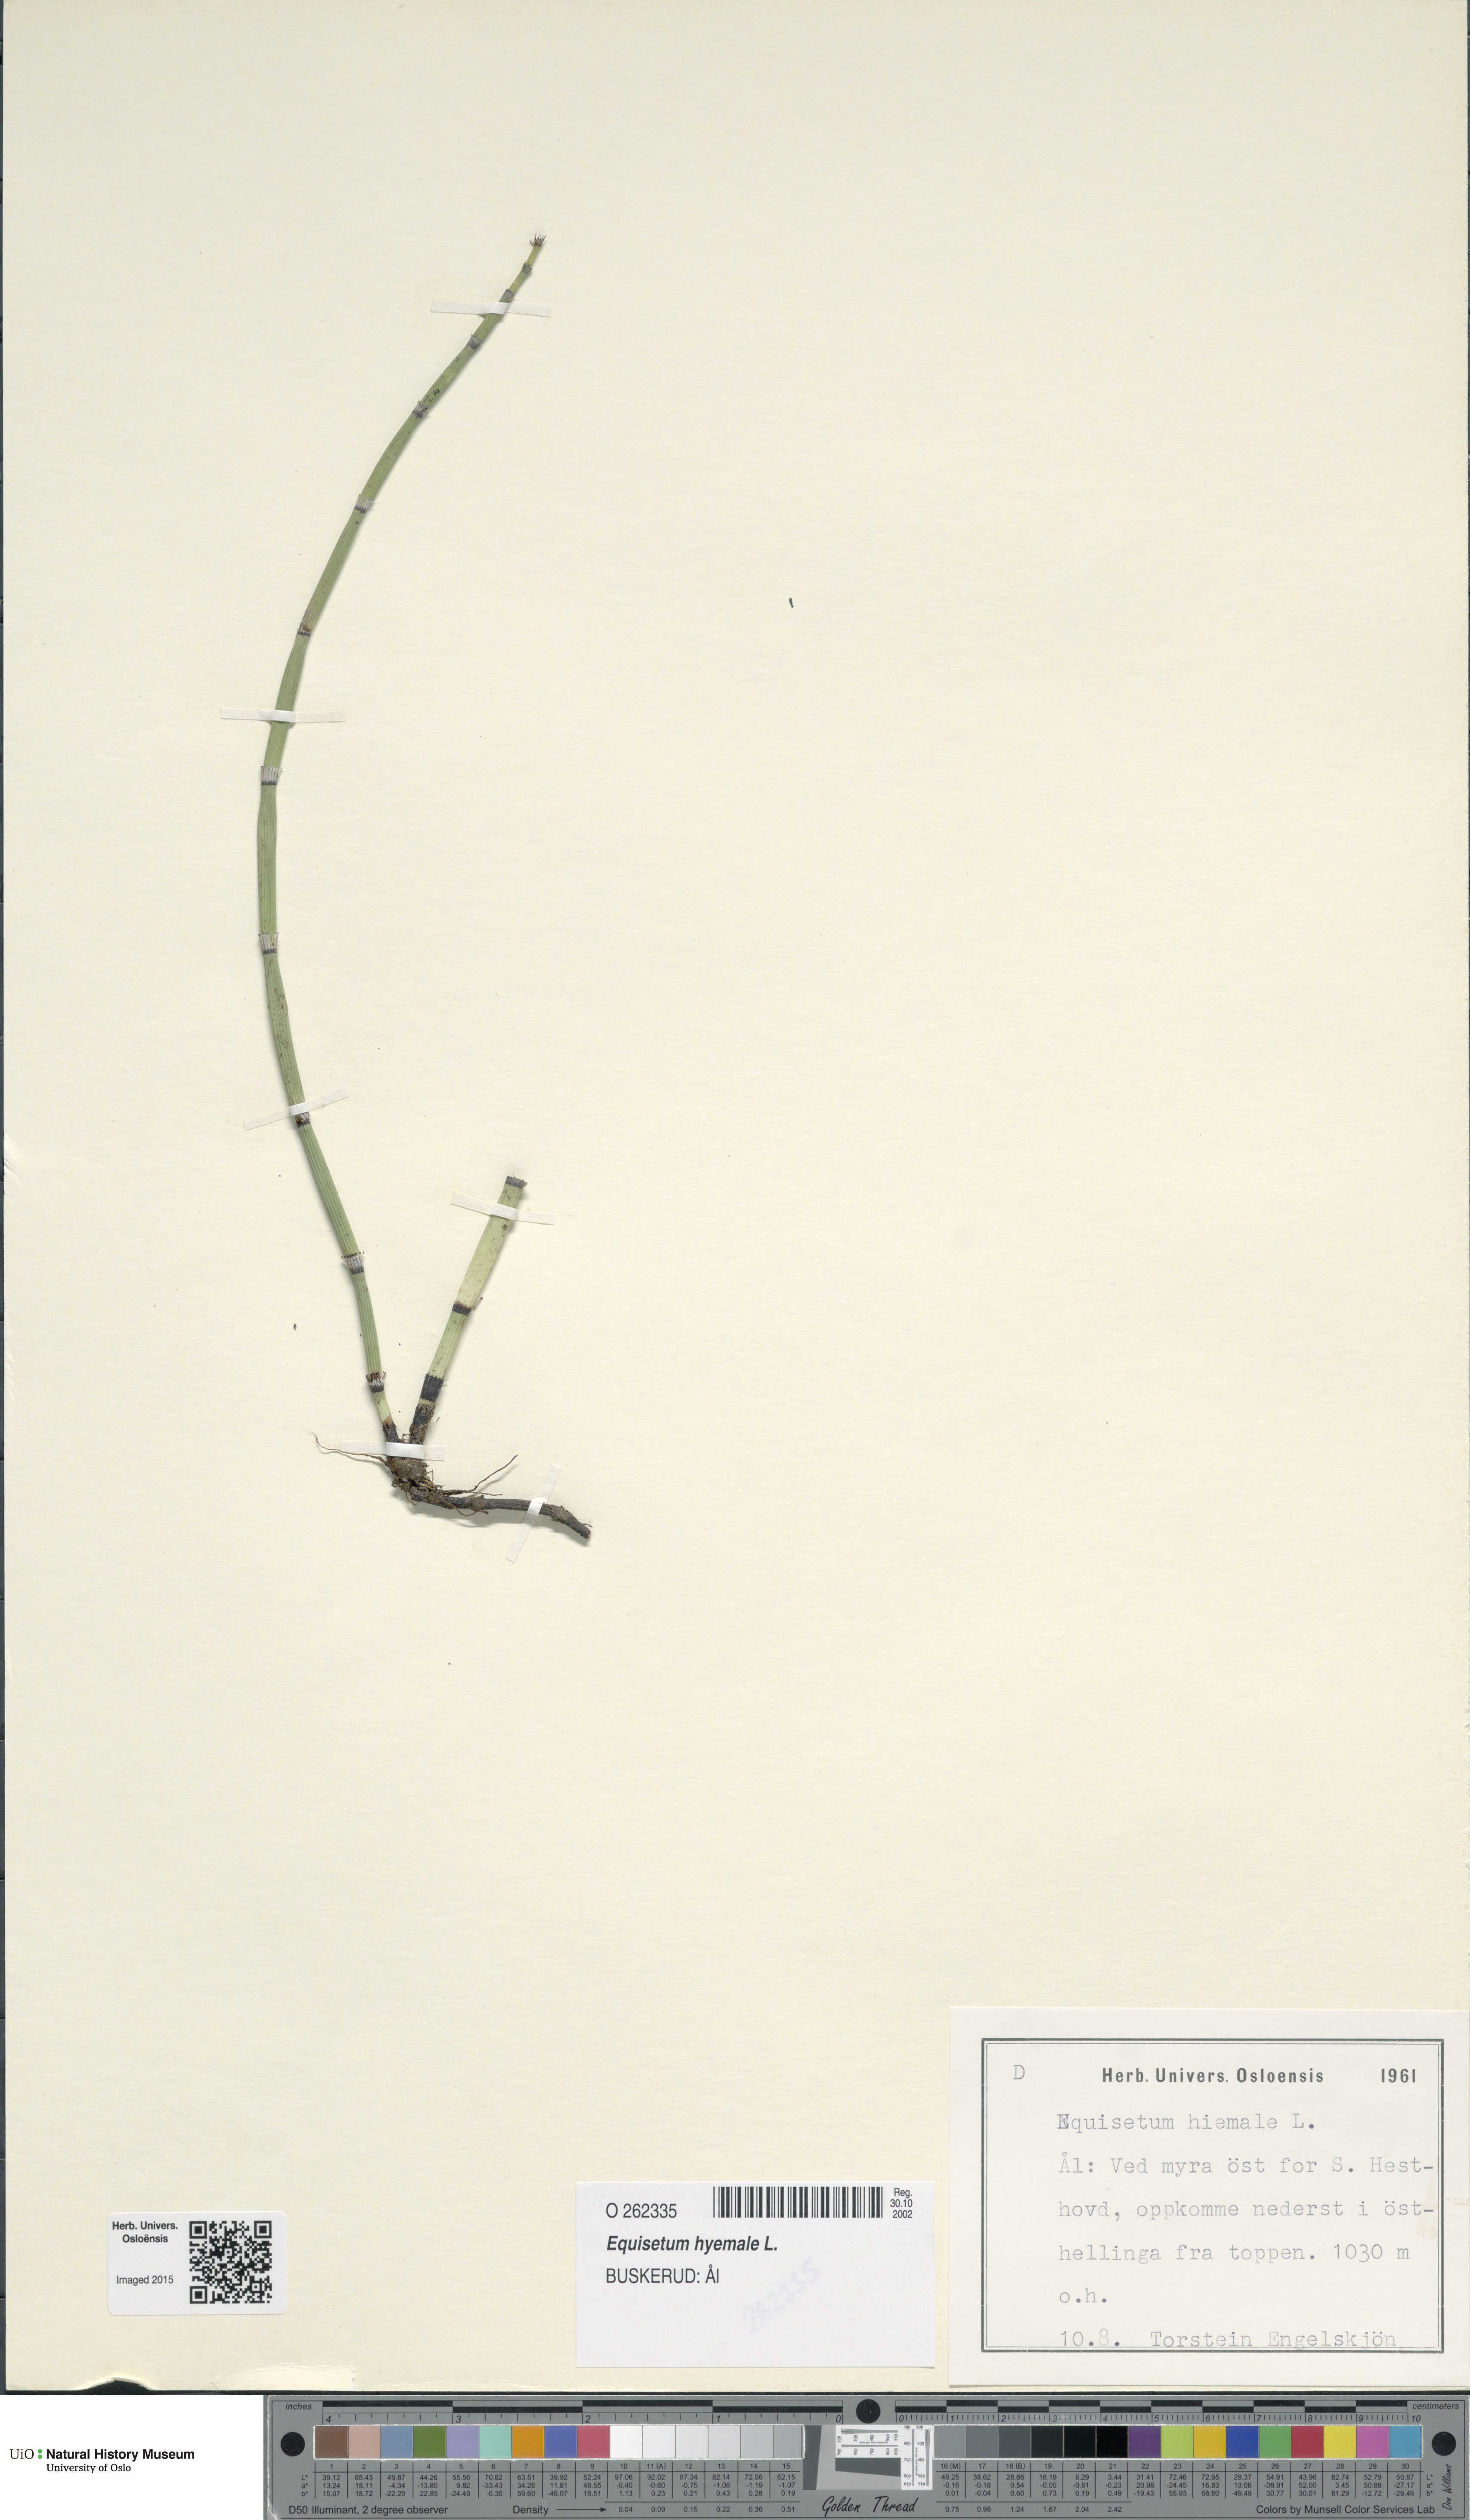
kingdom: Plantae
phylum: Tracheophyta
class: Polypodiopsida
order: Equisetales
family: Equisetaceae
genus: Equisetum
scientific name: Equisetum hyemale
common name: Rough horsetail
